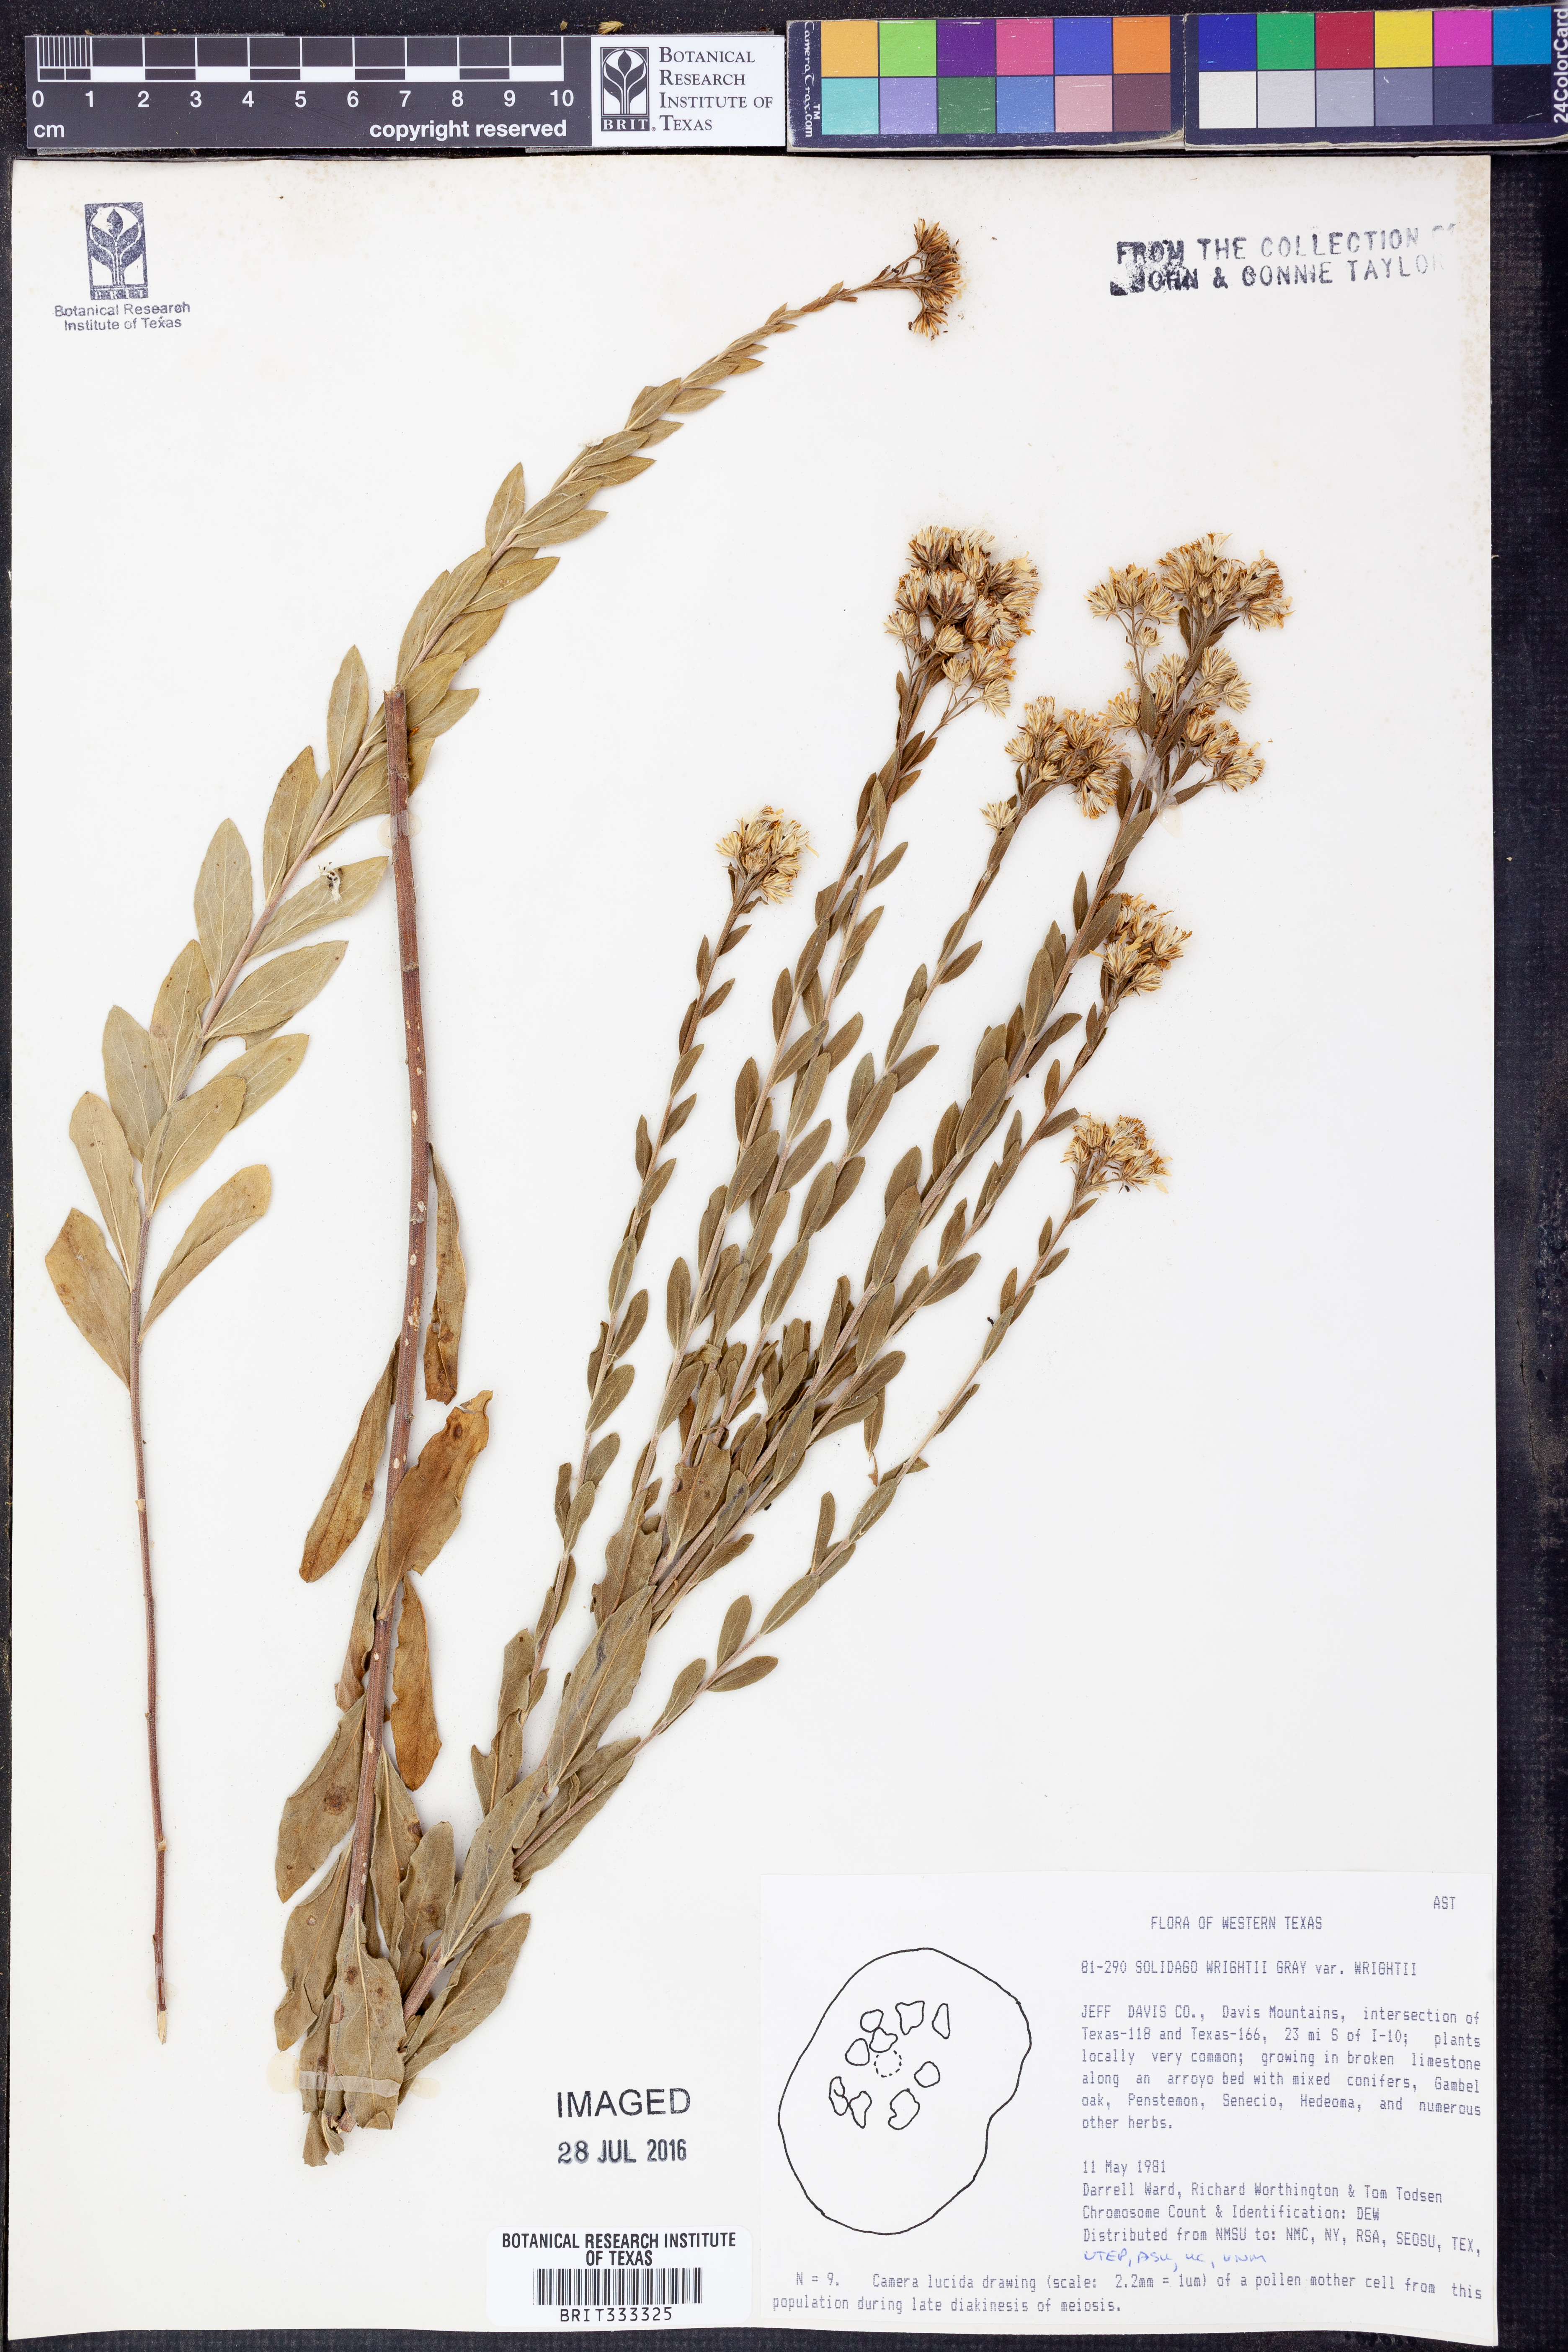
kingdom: Plantae
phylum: Tracheophyta
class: Magnoliopsida
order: Asterales
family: Asteraceae
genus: Solidago
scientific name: Solidago wrightii
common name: Wright's goldenrod
